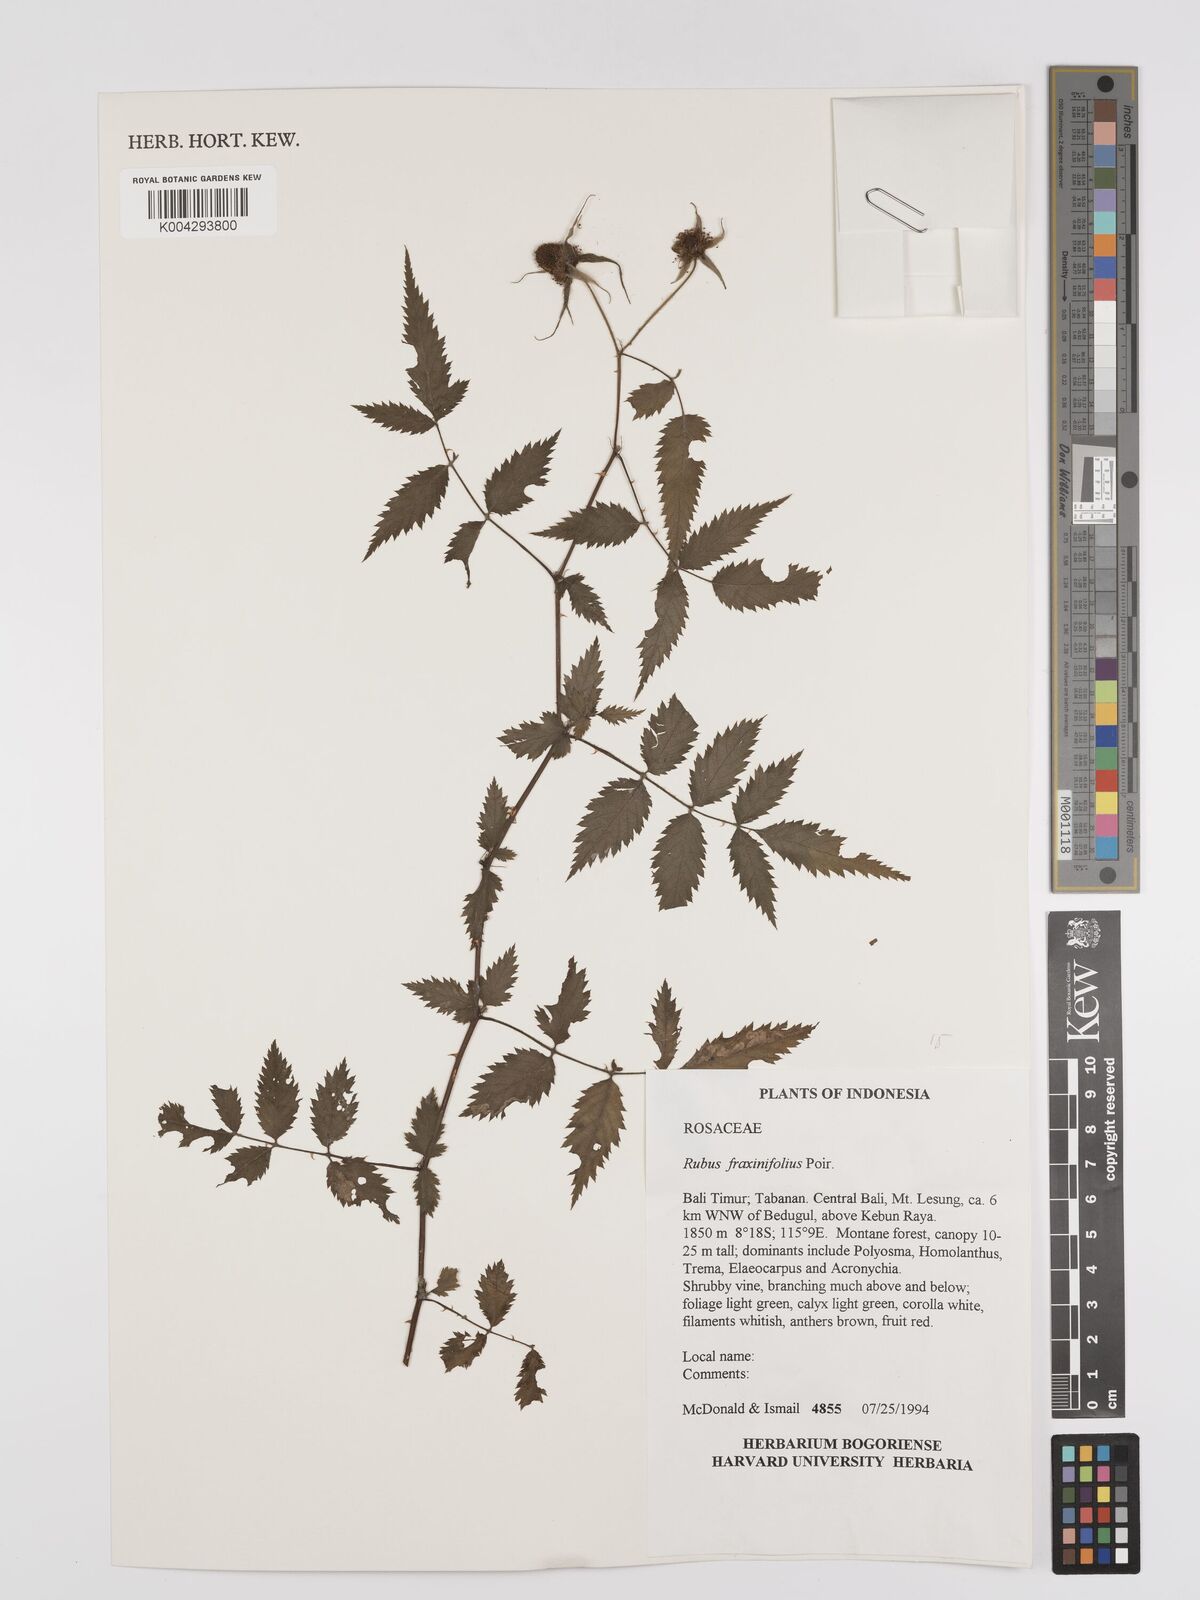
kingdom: Plantae
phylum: Tracheophyta
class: Magnoliopsida
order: Rosales
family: Rosaceae
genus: Rubus
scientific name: Rubus fraxinifolius
